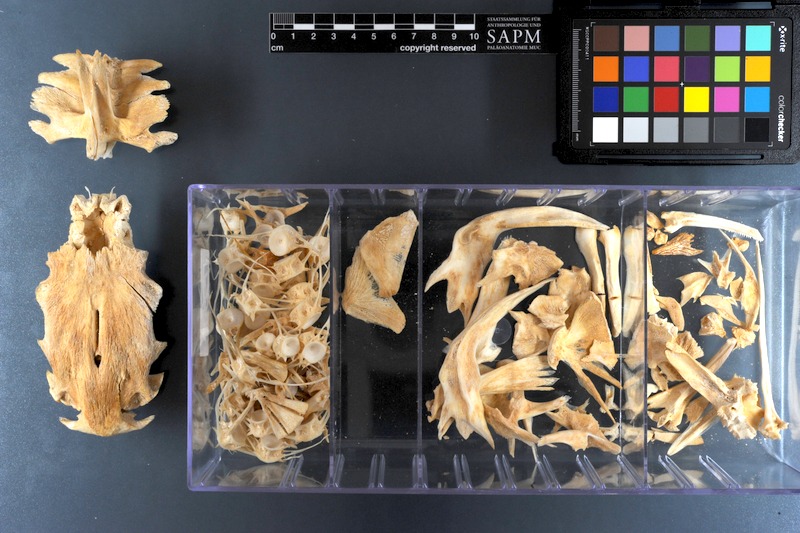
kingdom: Animalia
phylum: Chordata
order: Siluriformes
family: Pimelodidae
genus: Pinirampus
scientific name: Pinirampus pirinampu
